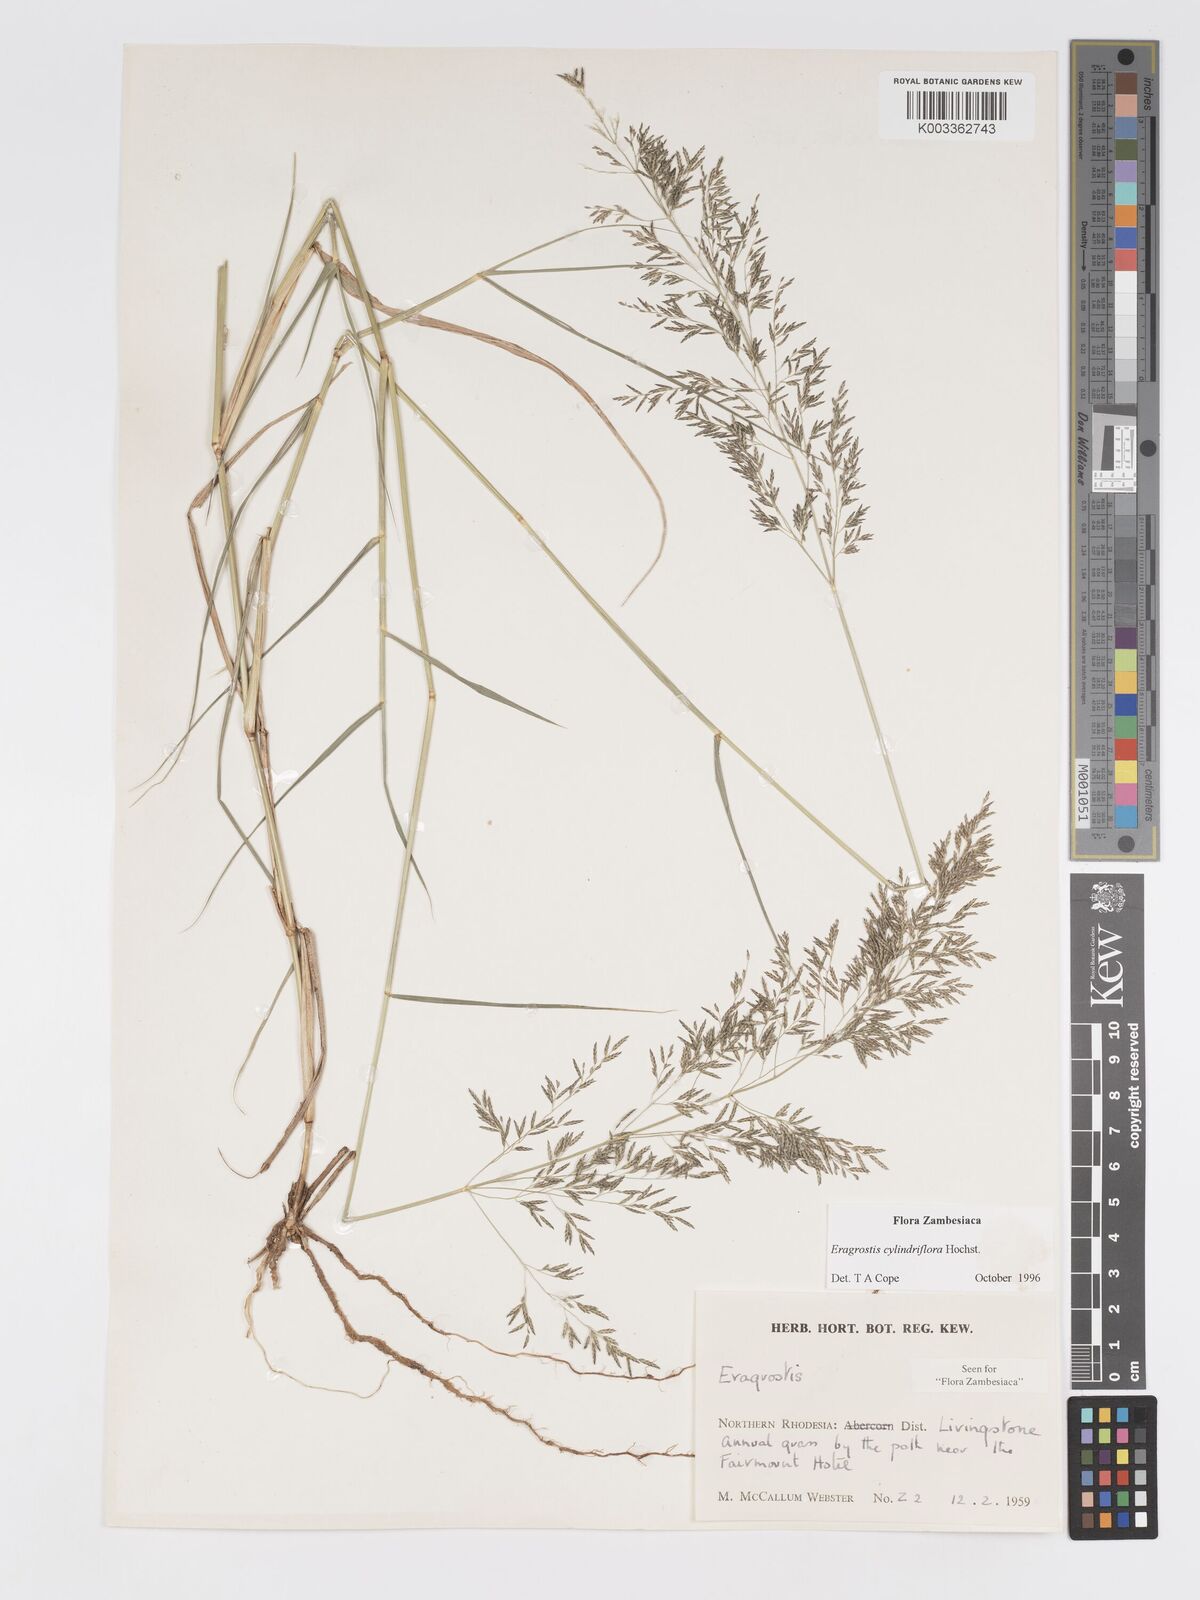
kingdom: Plantae
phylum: Tracheophyta
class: Liliopsida
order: Poales
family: Poaceae
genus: Eragrostis
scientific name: Eragrostis cylindriflora
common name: Cylinderflower lovegrass
